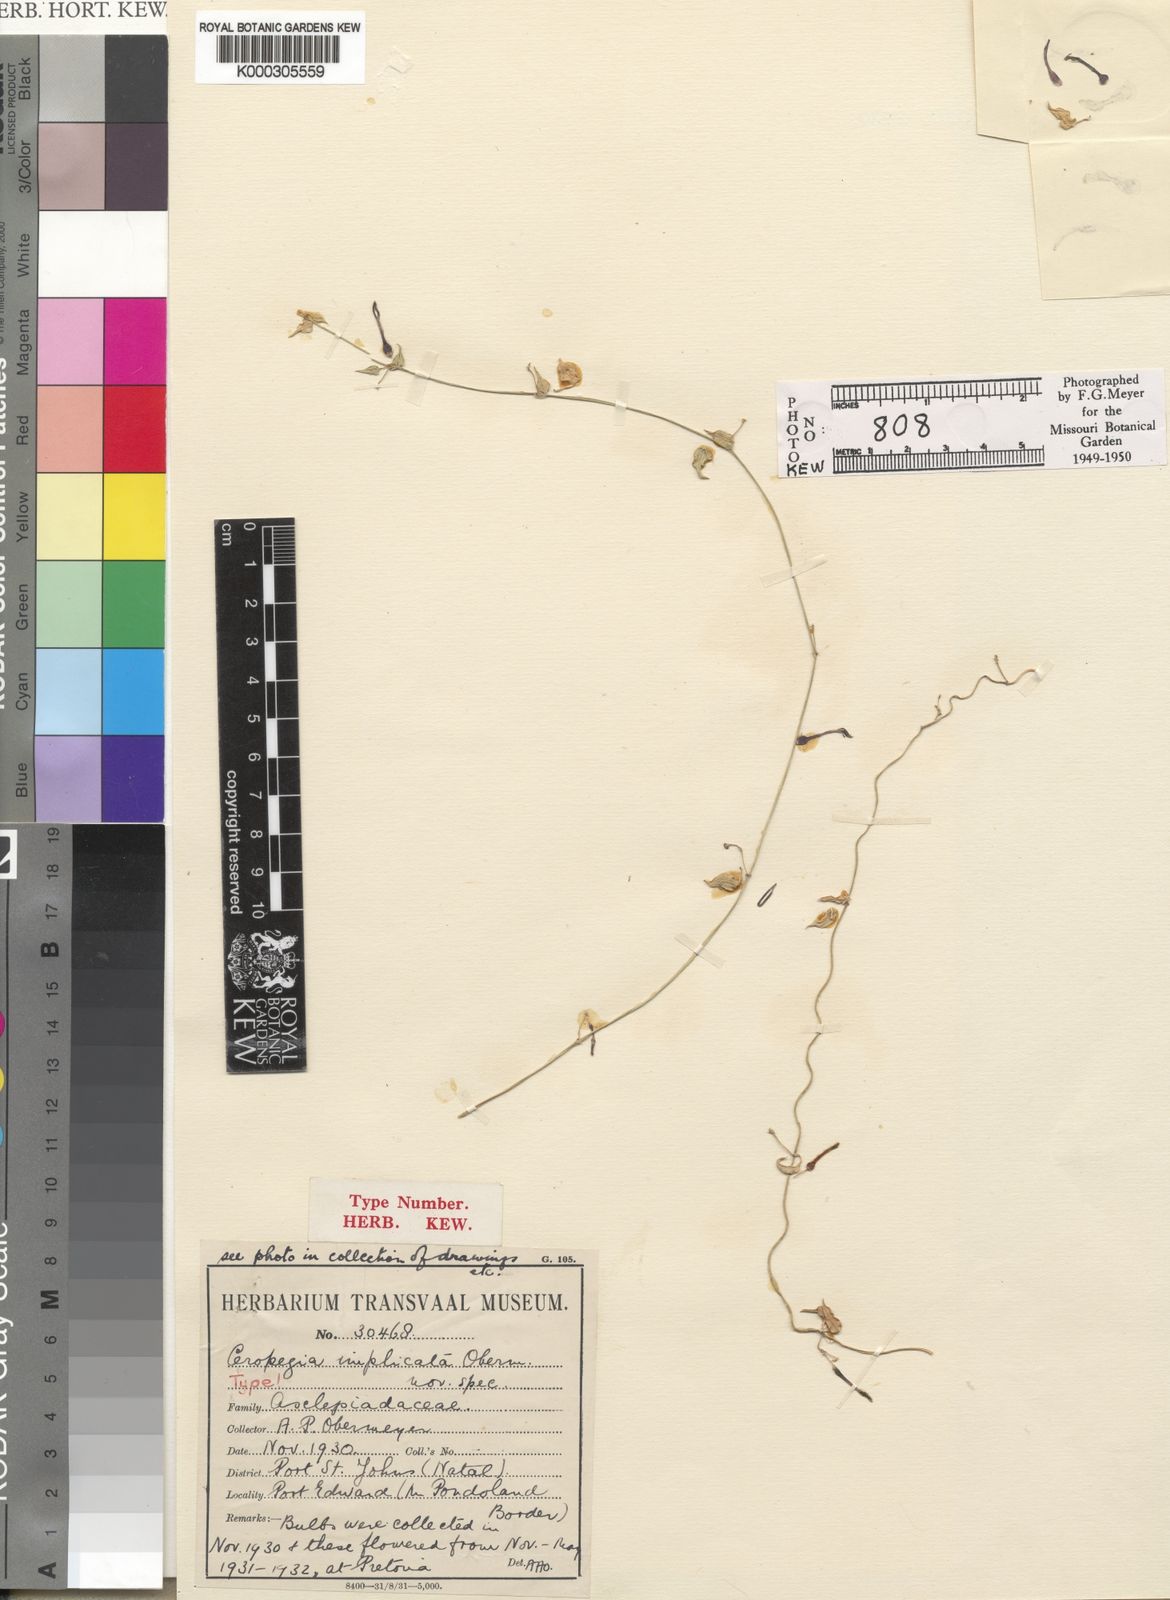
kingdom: Plantae
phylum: Tracheophyta
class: Magnoliopsida
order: Gentianales
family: Apocynaceae
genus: Ceropegia
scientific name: Ceropegia linearis
